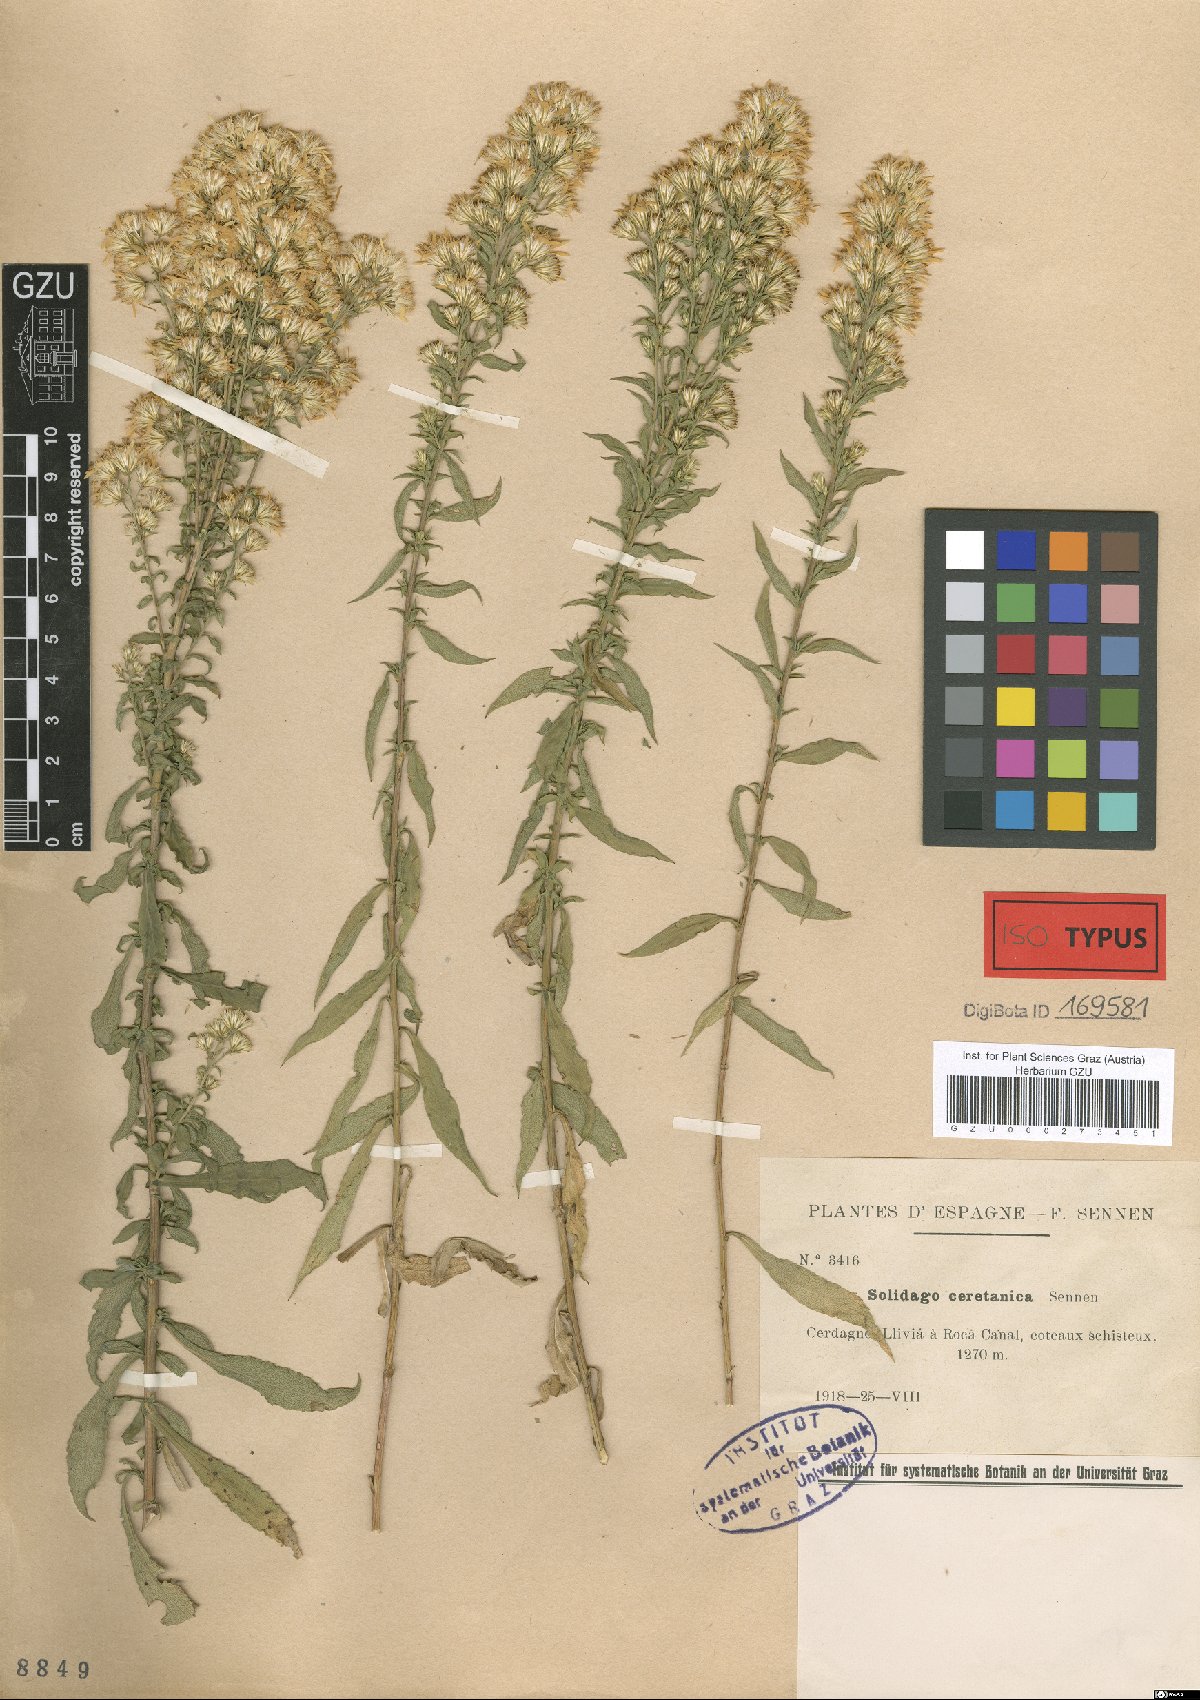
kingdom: Plantae
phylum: Tracheophyta
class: Magnoliopsida
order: Asterales
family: Asteraceae
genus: Solidago
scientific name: Solidago ceretana
